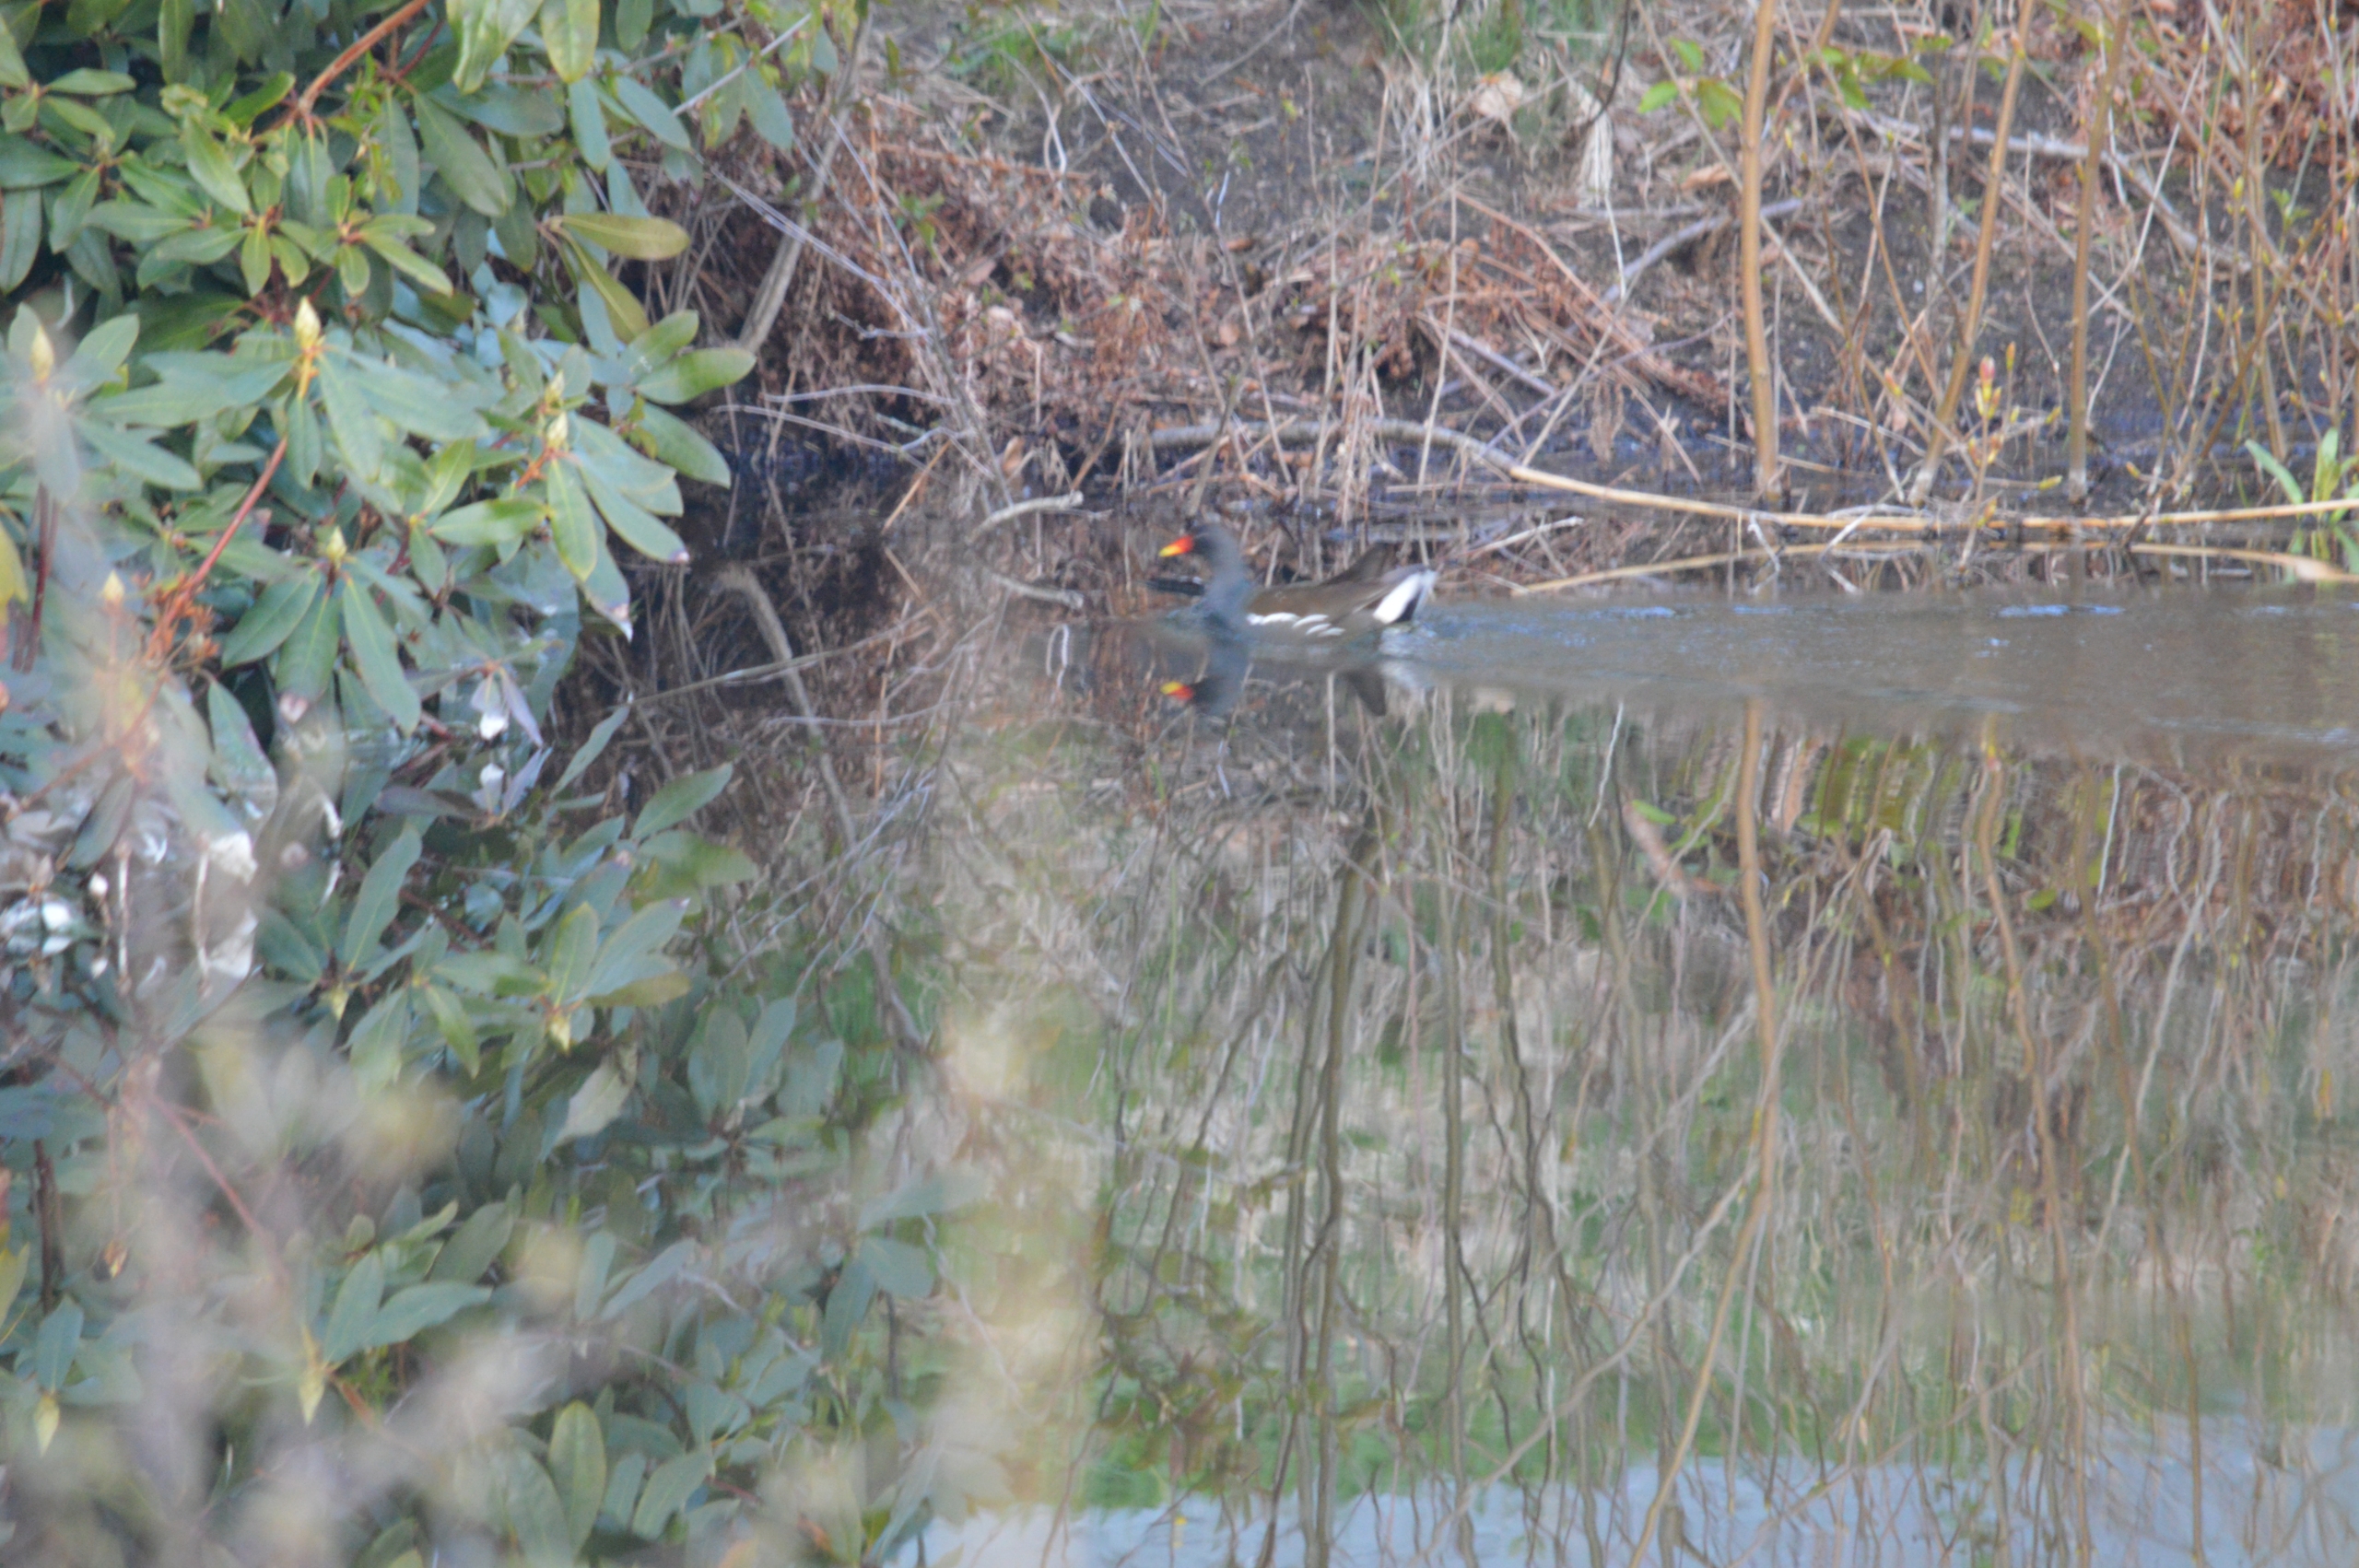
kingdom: Animalia
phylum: Chordata
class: Aves
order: Gruiformes
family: Rallidae
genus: Gallinula
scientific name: Gallinula chloropus
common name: Grønbenet rørhøne
